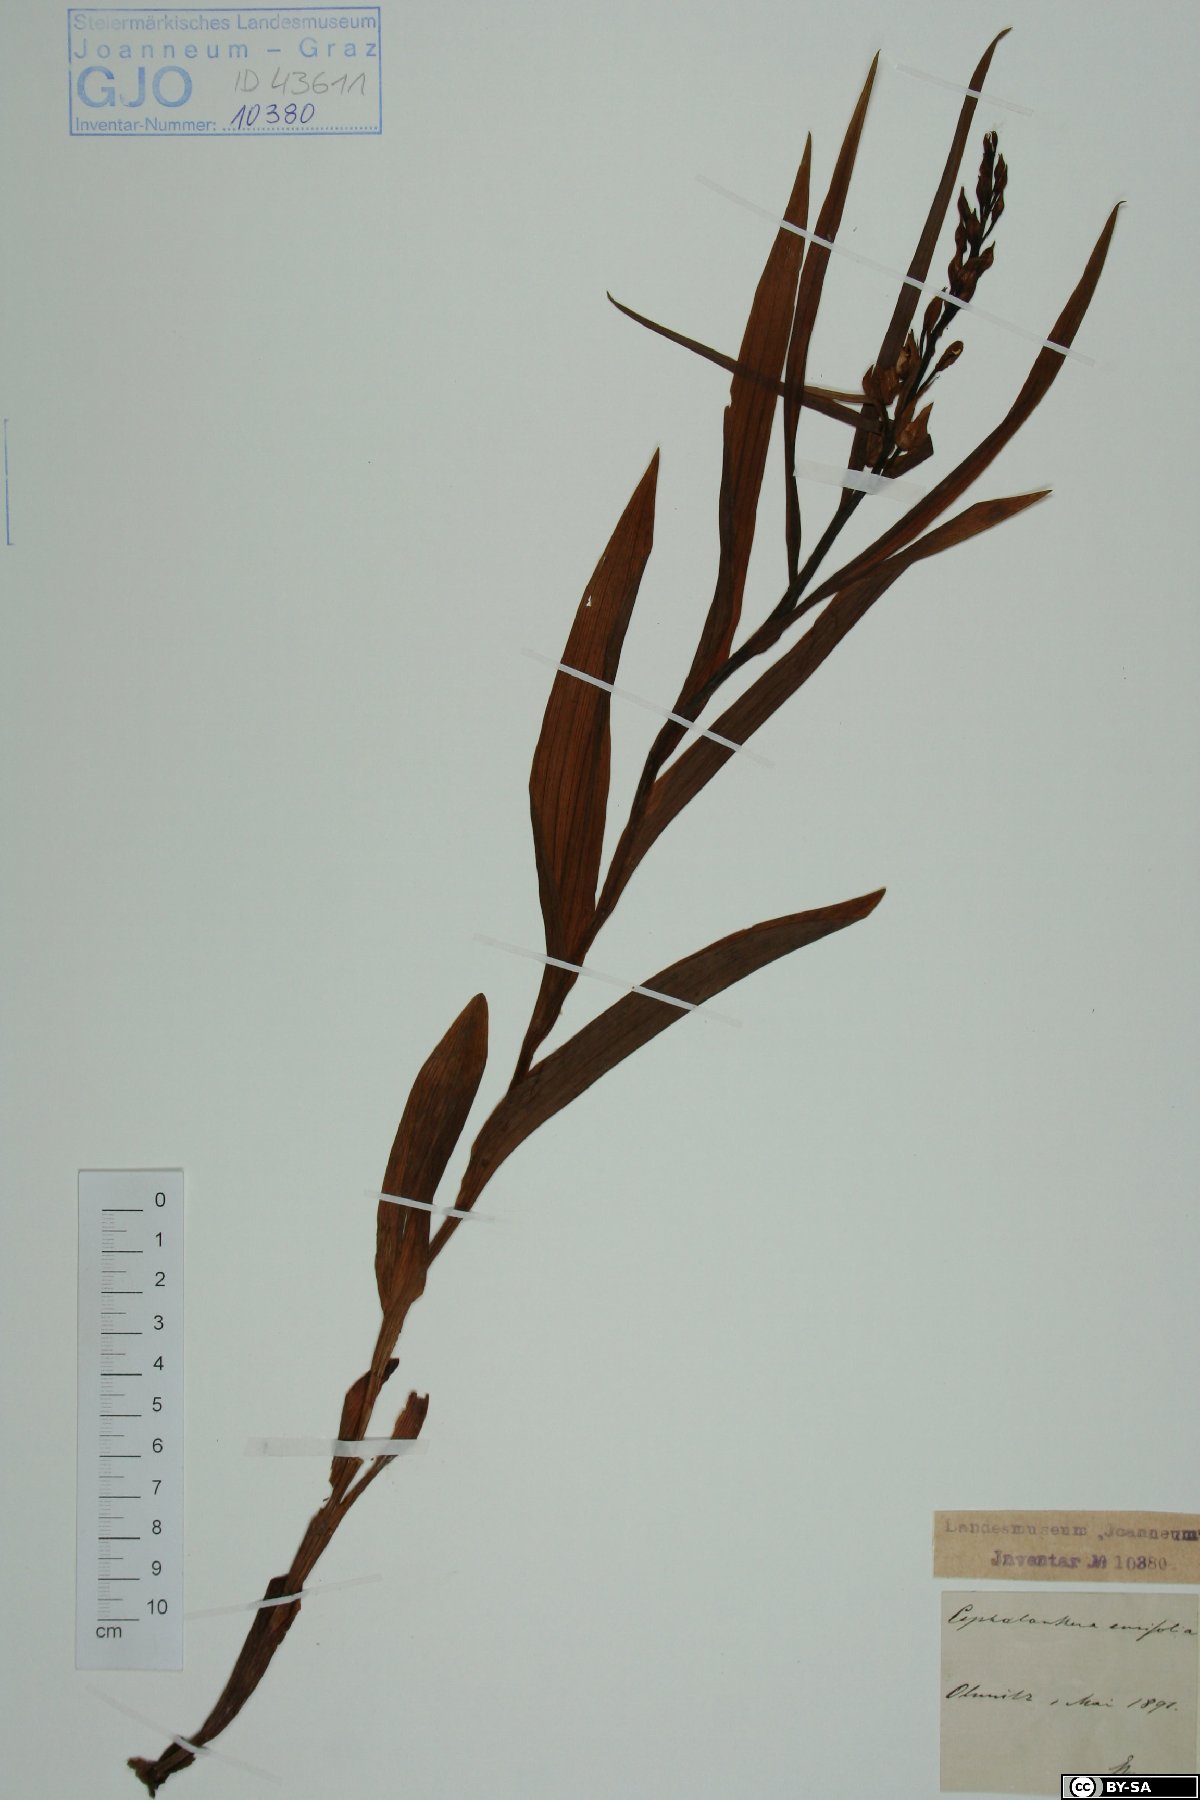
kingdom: Plantae
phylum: Tracheophyta
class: Liliopsida
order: Asparagales
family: Orchidaceae
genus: Cephalanthera
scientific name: Cephalanthera longifolia
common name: Narrow-leaved helleborine
